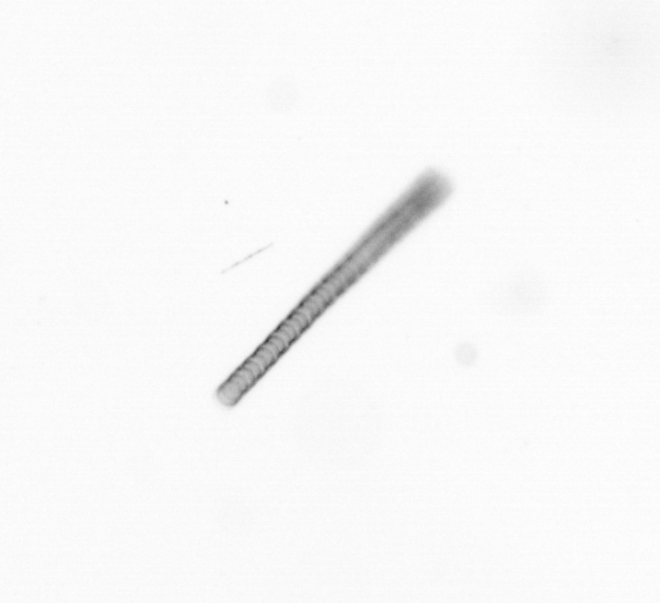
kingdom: Chromista
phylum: Ochrophyta
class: Bacillariophyceae
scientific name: Bacillariophyceae
